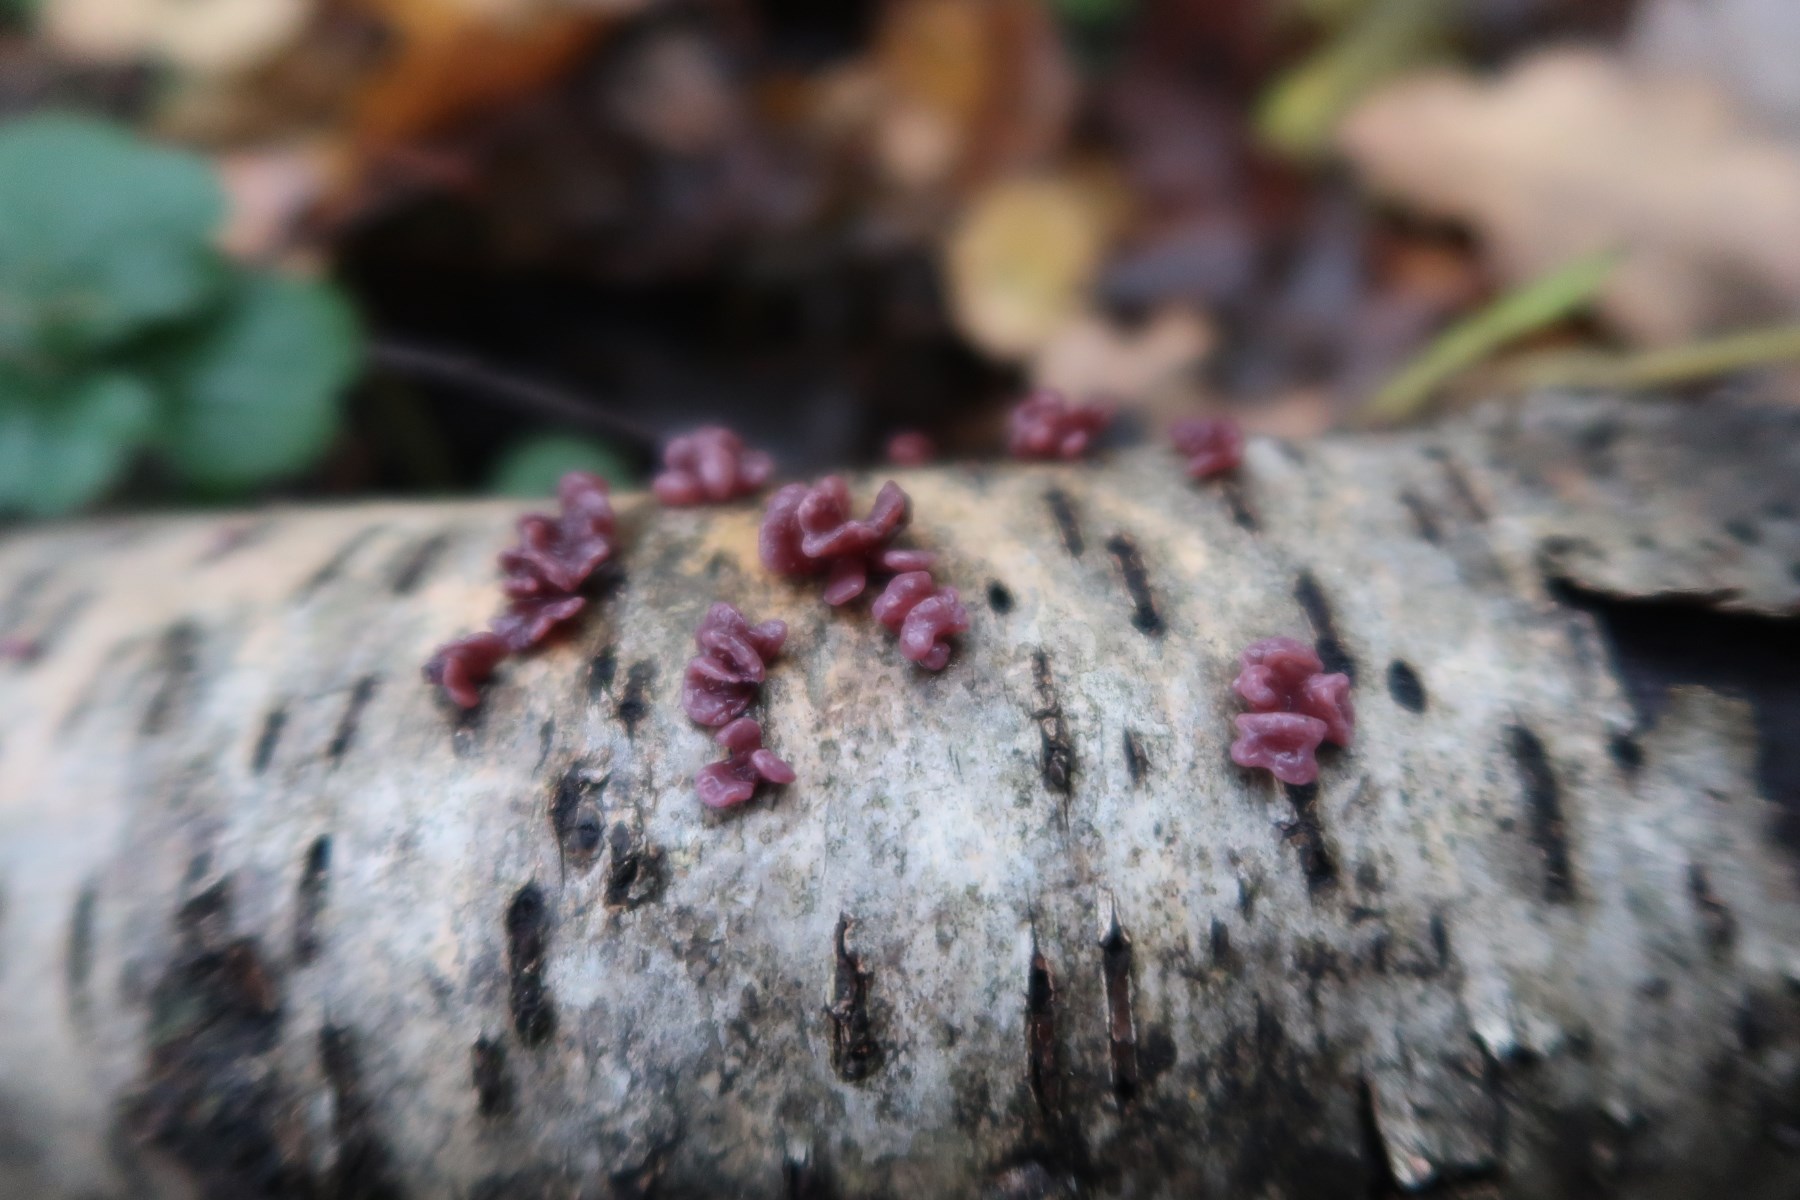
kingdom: Fungi
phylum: Ascomycota
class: Leotiomycetes
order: Helotiales
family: Gelatinodiscaceae
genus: Ascocoryne
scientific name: Ascocoryne sarcoides
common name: rødlilla sejskive
